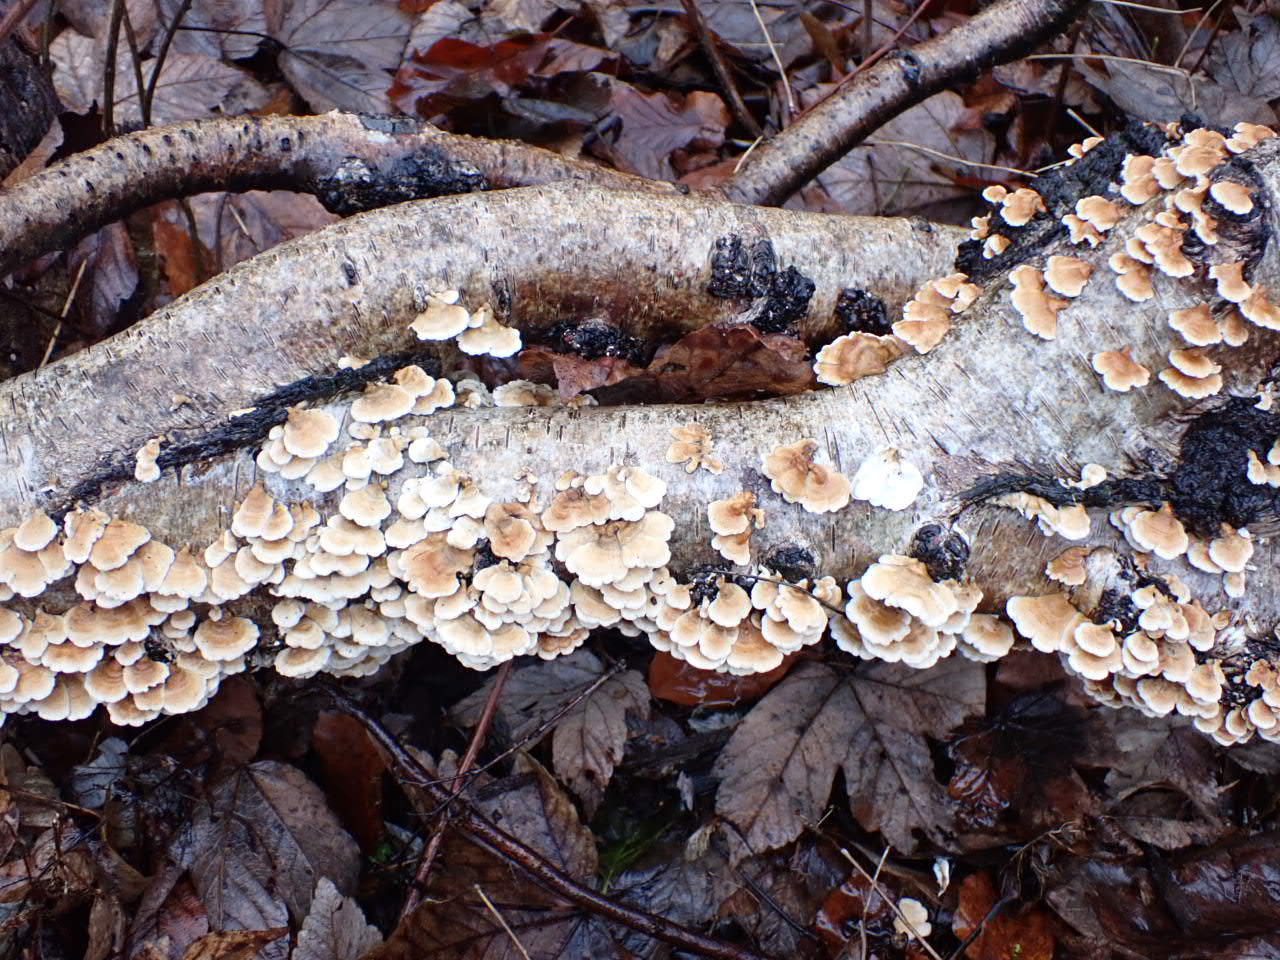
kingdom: Fungi
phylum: Basidiomycota
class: Agaricomycetes
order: Amylocorticiales
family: Amylocorticiaceae
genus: Plicaturopsis
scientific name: Plicaturopsis crispa
